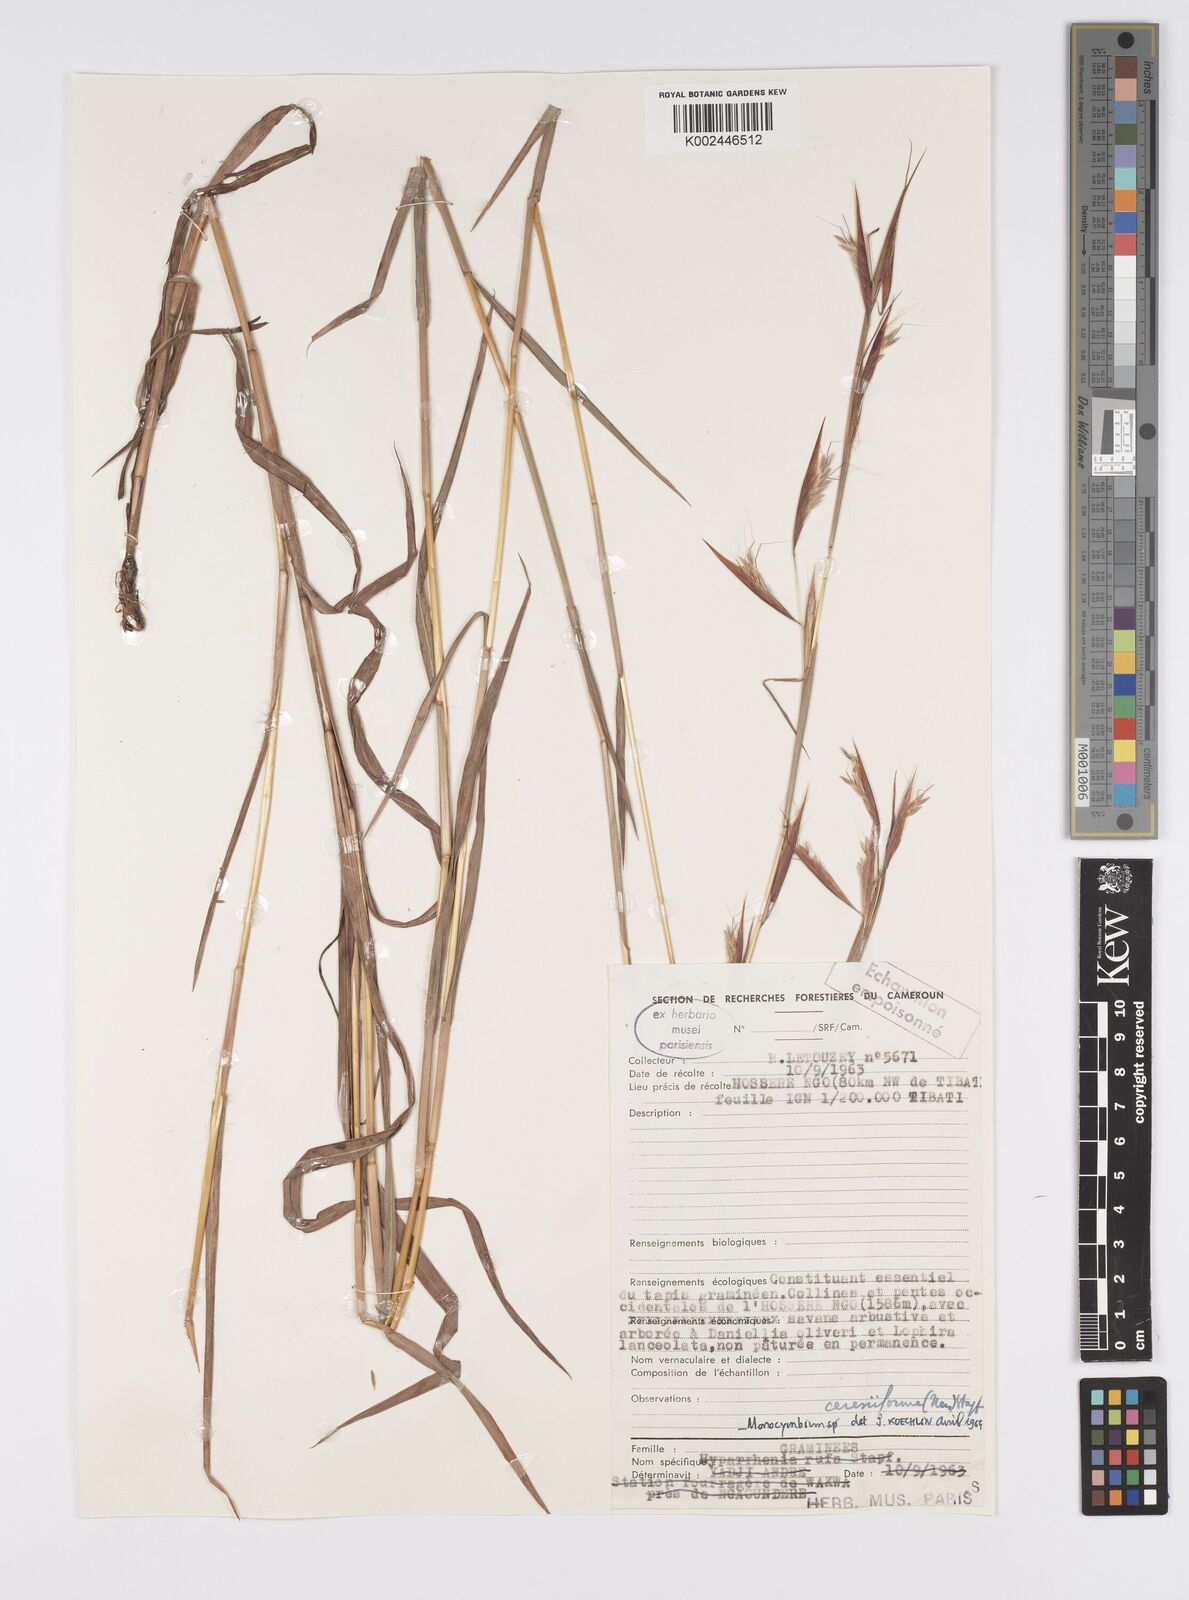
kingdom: Plantae
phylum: Tracheophyta
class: Liliopsida
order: Poales
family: Poaceae
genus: Monocymbium
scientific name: Monocymbium ceresiiforme
